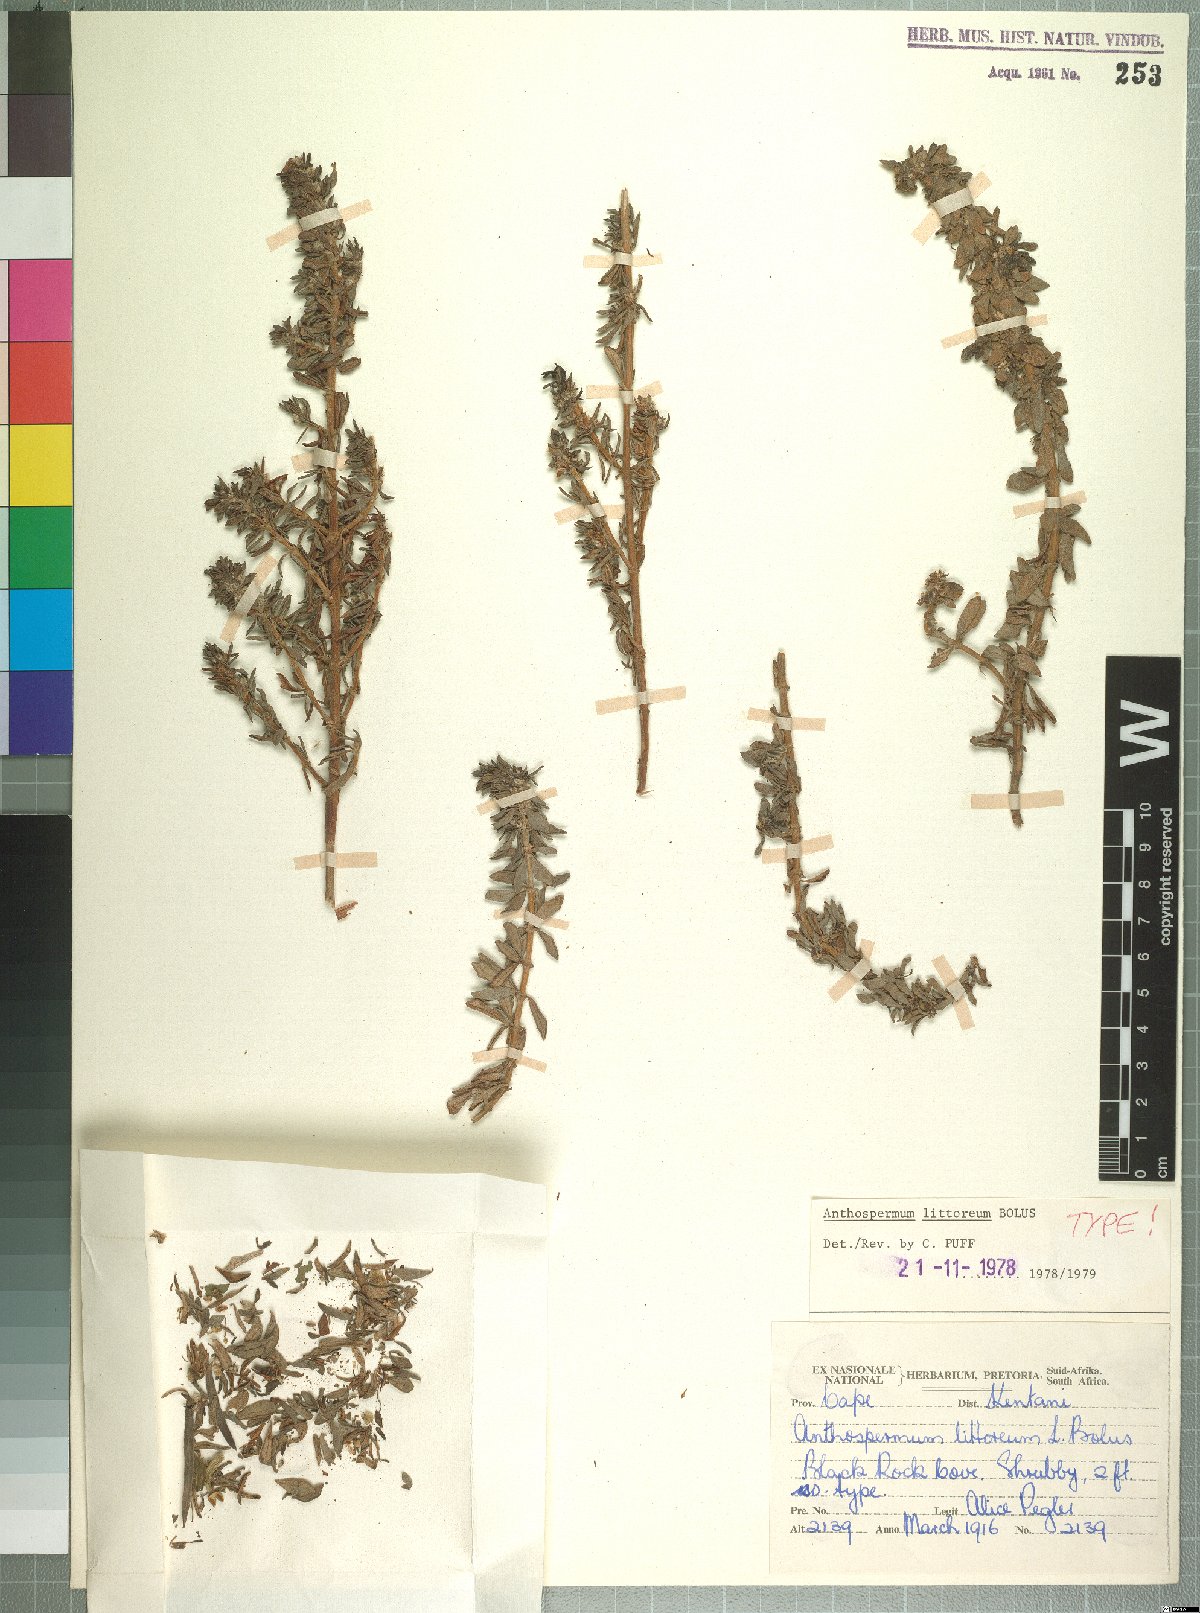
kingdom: Plantae
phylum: Tracheophyta
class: Magnoliopsida
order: Gentianales
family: Rubiaceae
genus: Anthospermum
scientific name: Anthospermum littoreum
